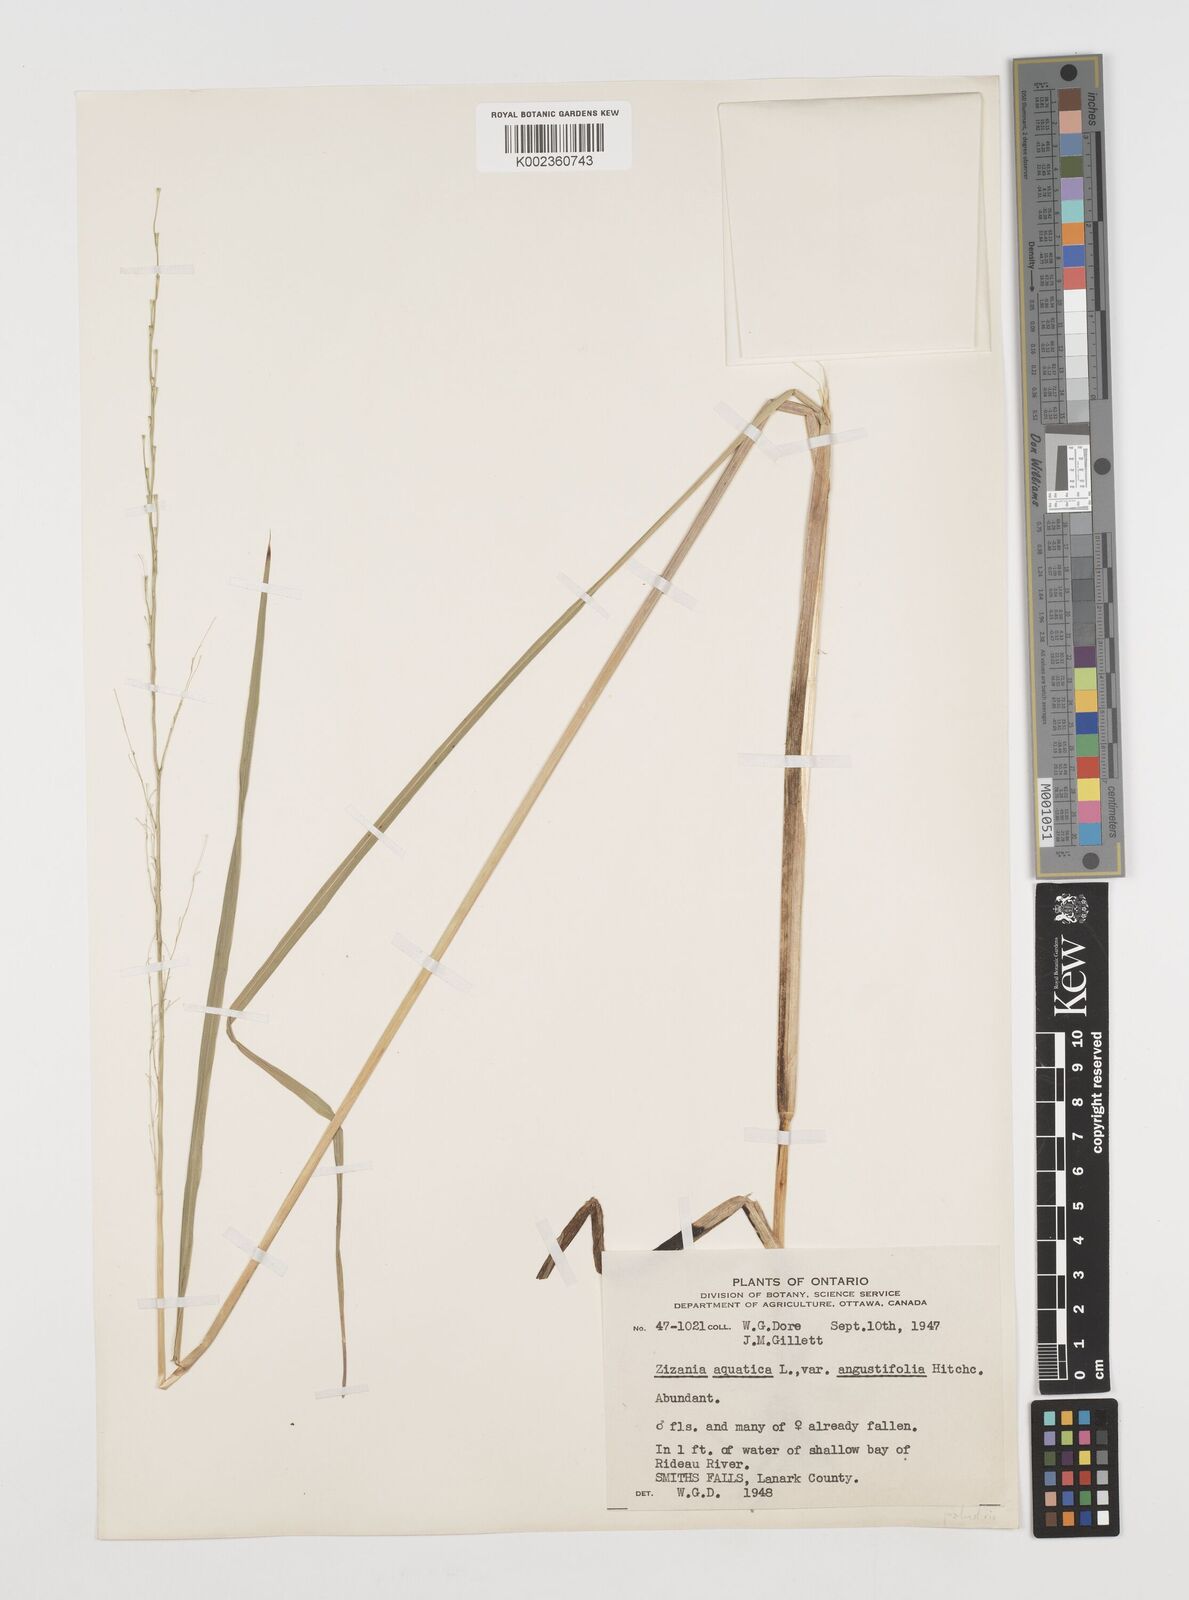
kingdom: Plantae
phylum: Tracheophyta
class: Liliopsida
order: Poales
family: Poaceae
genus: Zizania
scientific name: Zizania aquatica
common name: Annual wildrice
